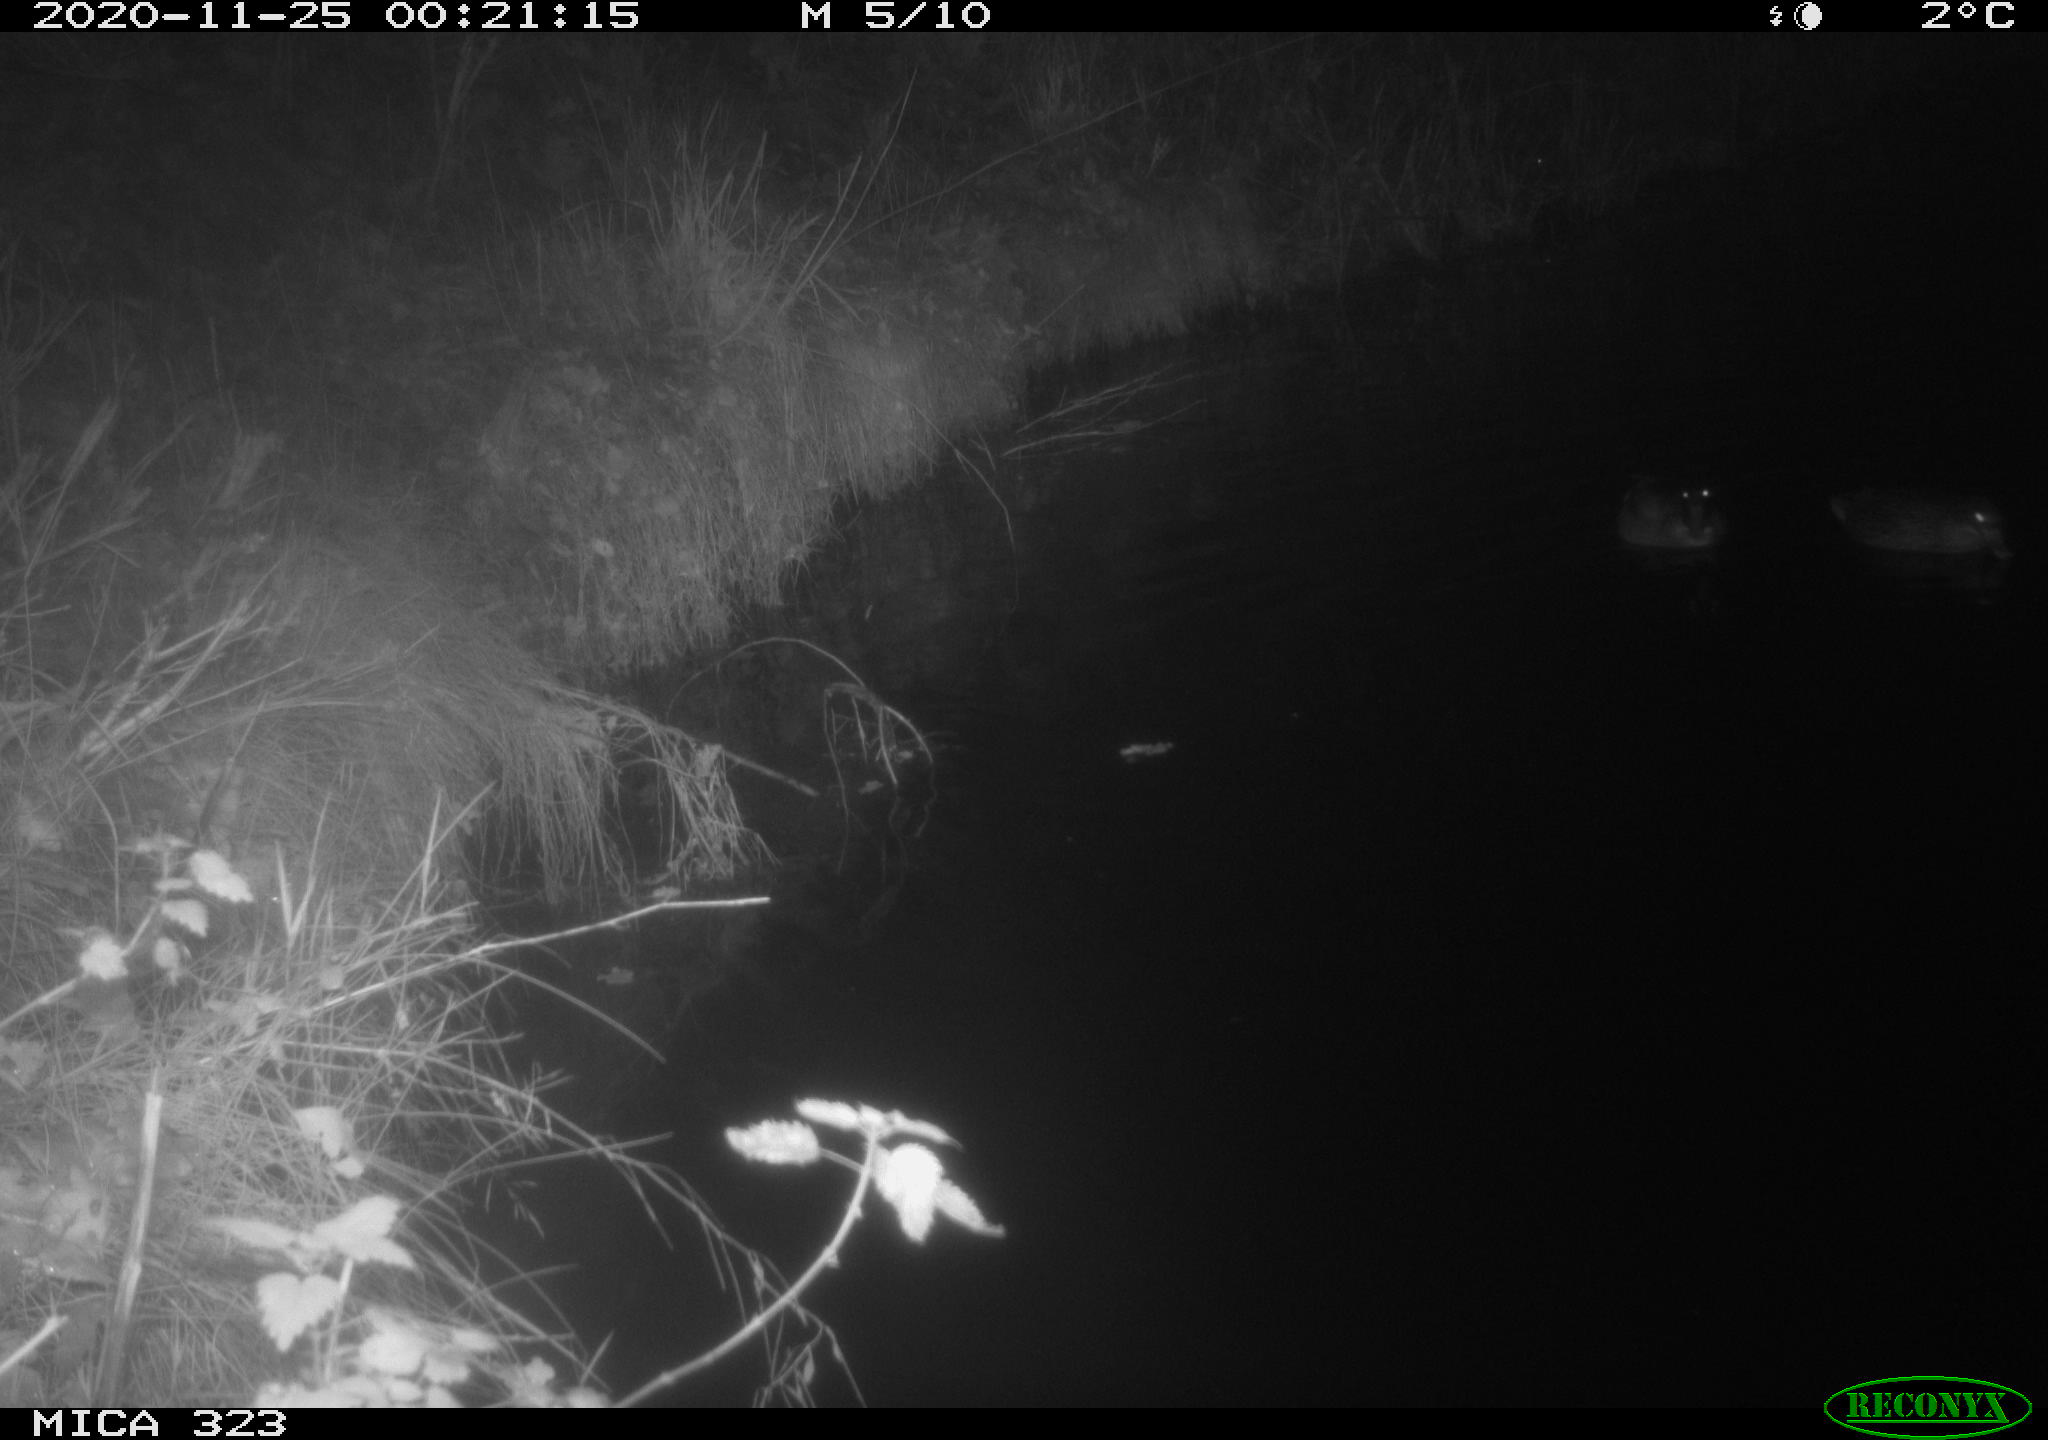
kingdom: Animalia
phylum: Chordata
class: Aves
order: Anseriformes
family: Anatidae
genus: Anas
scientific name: Anas
